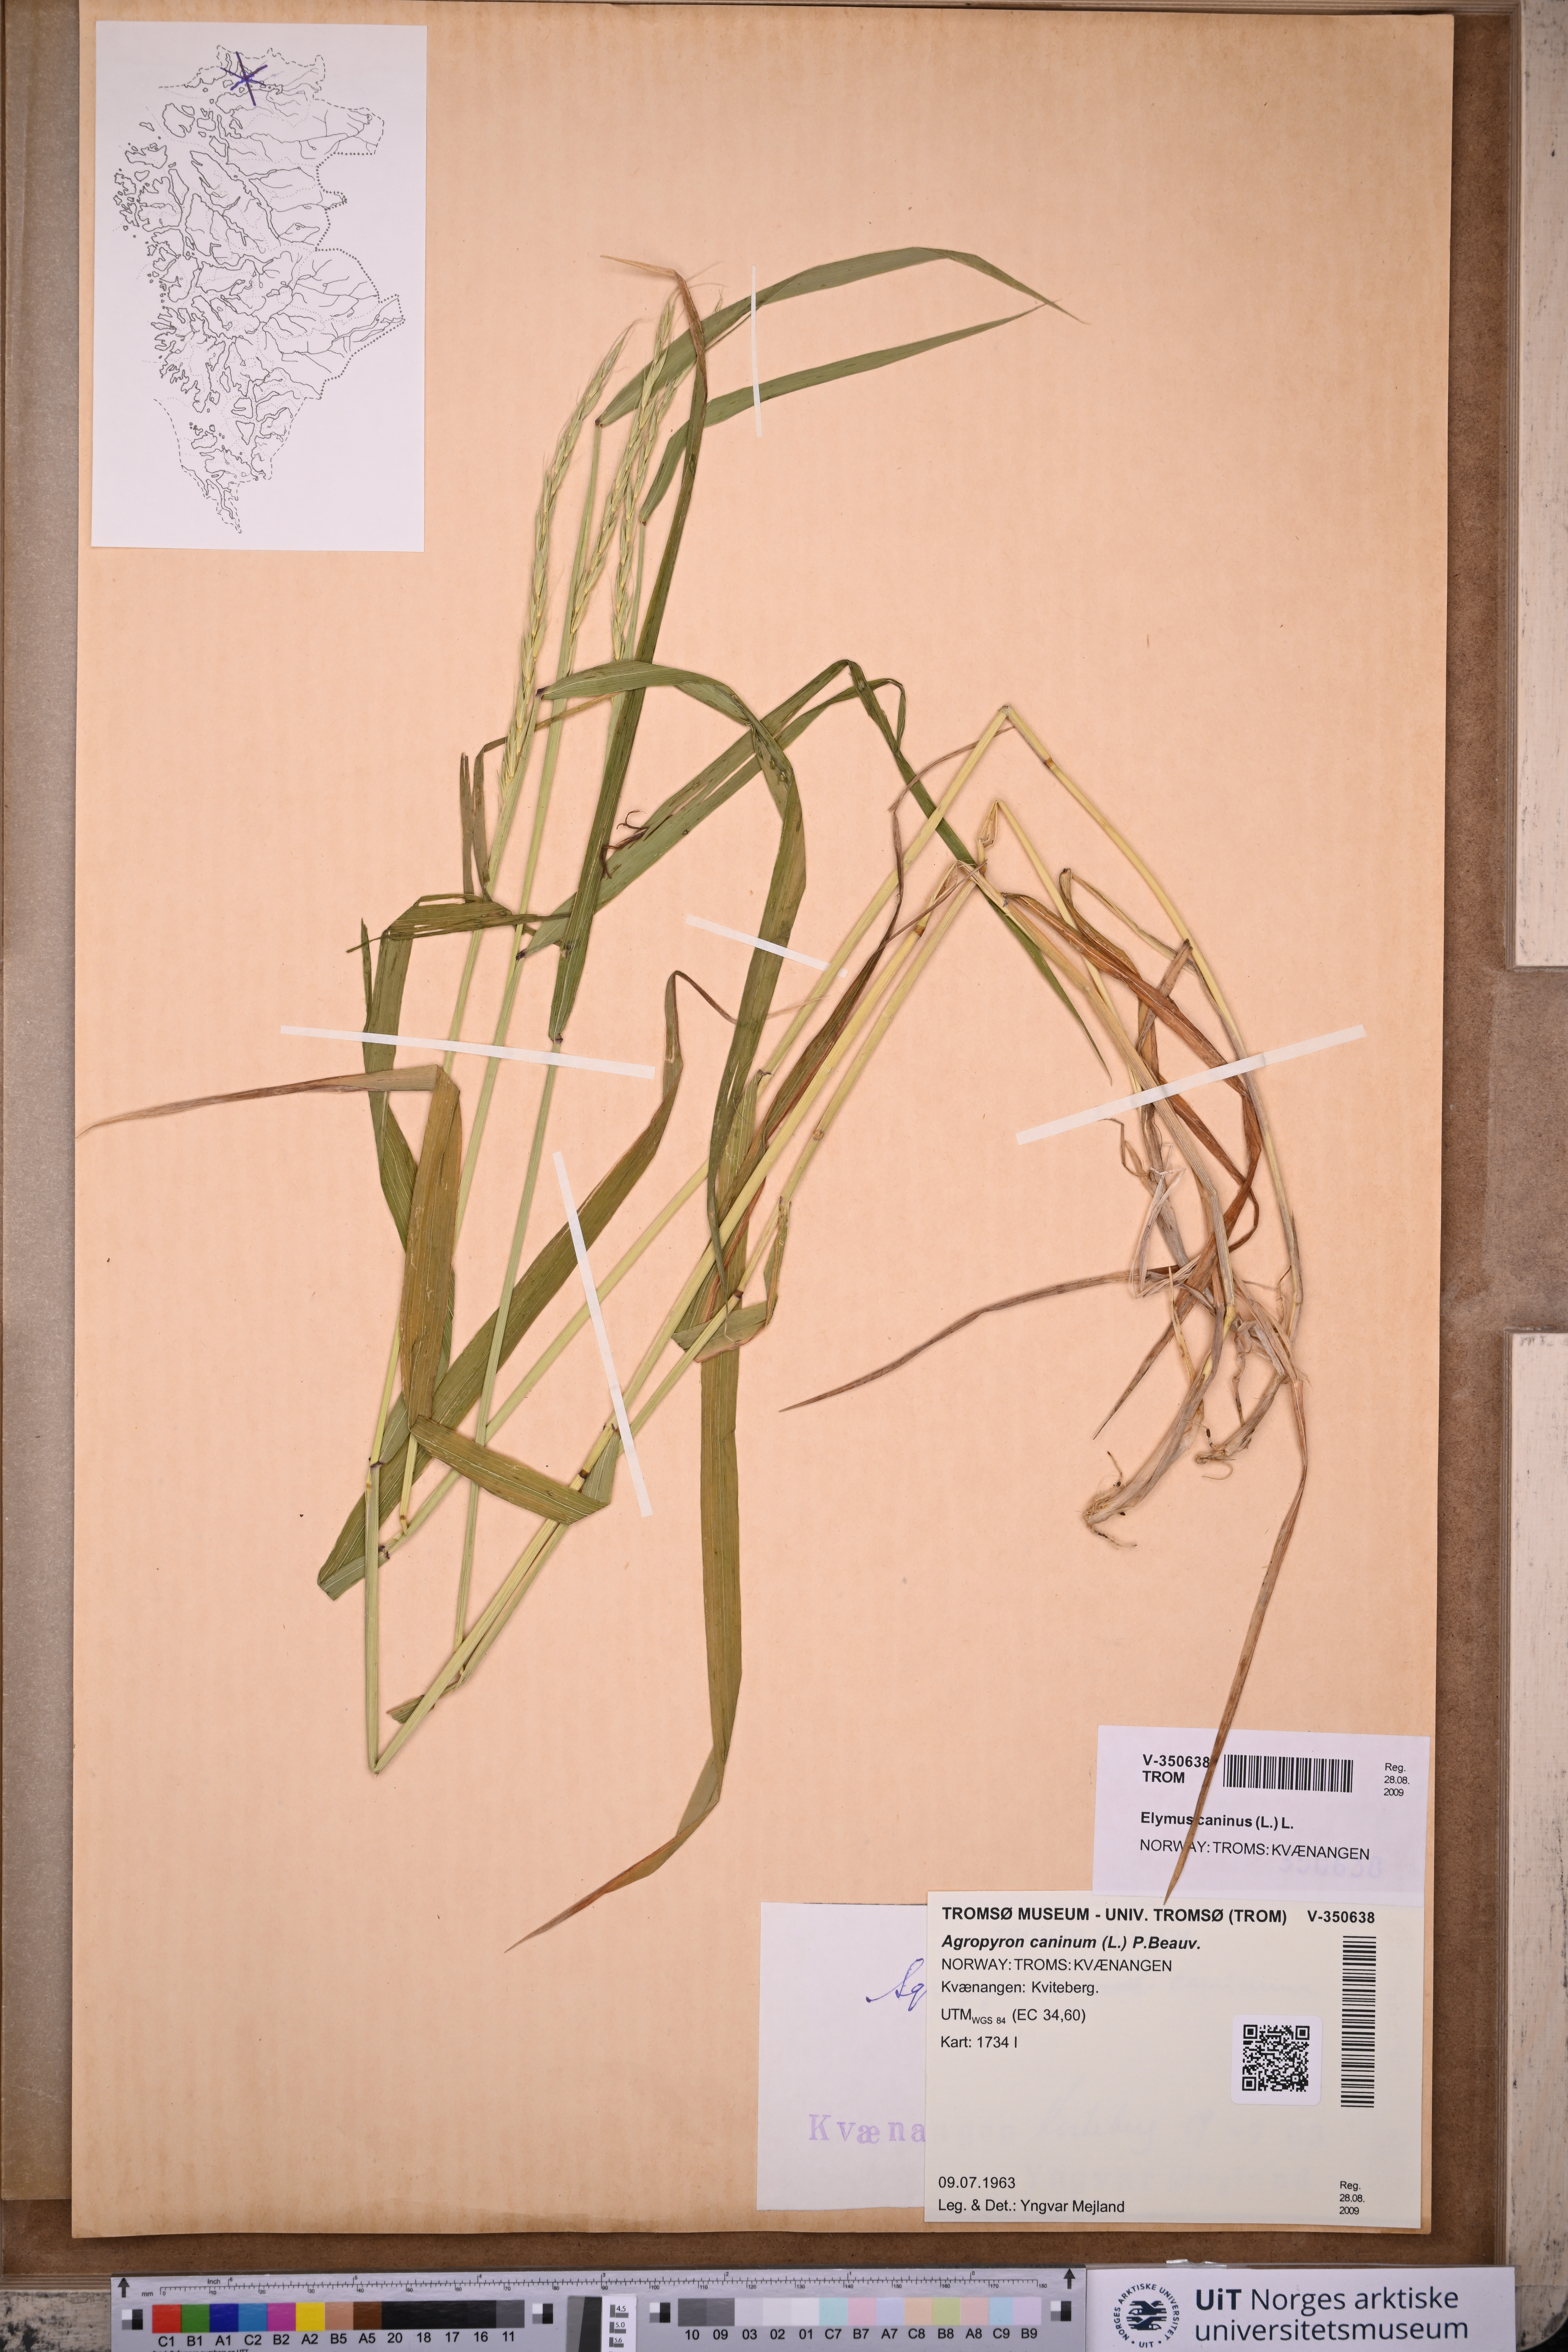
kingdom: Plantae
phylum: Tracheophyta
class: Liliopsida
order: Poales
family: Poaceae
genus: Elymus
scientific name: Elymus caninus
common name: Bearded couch
